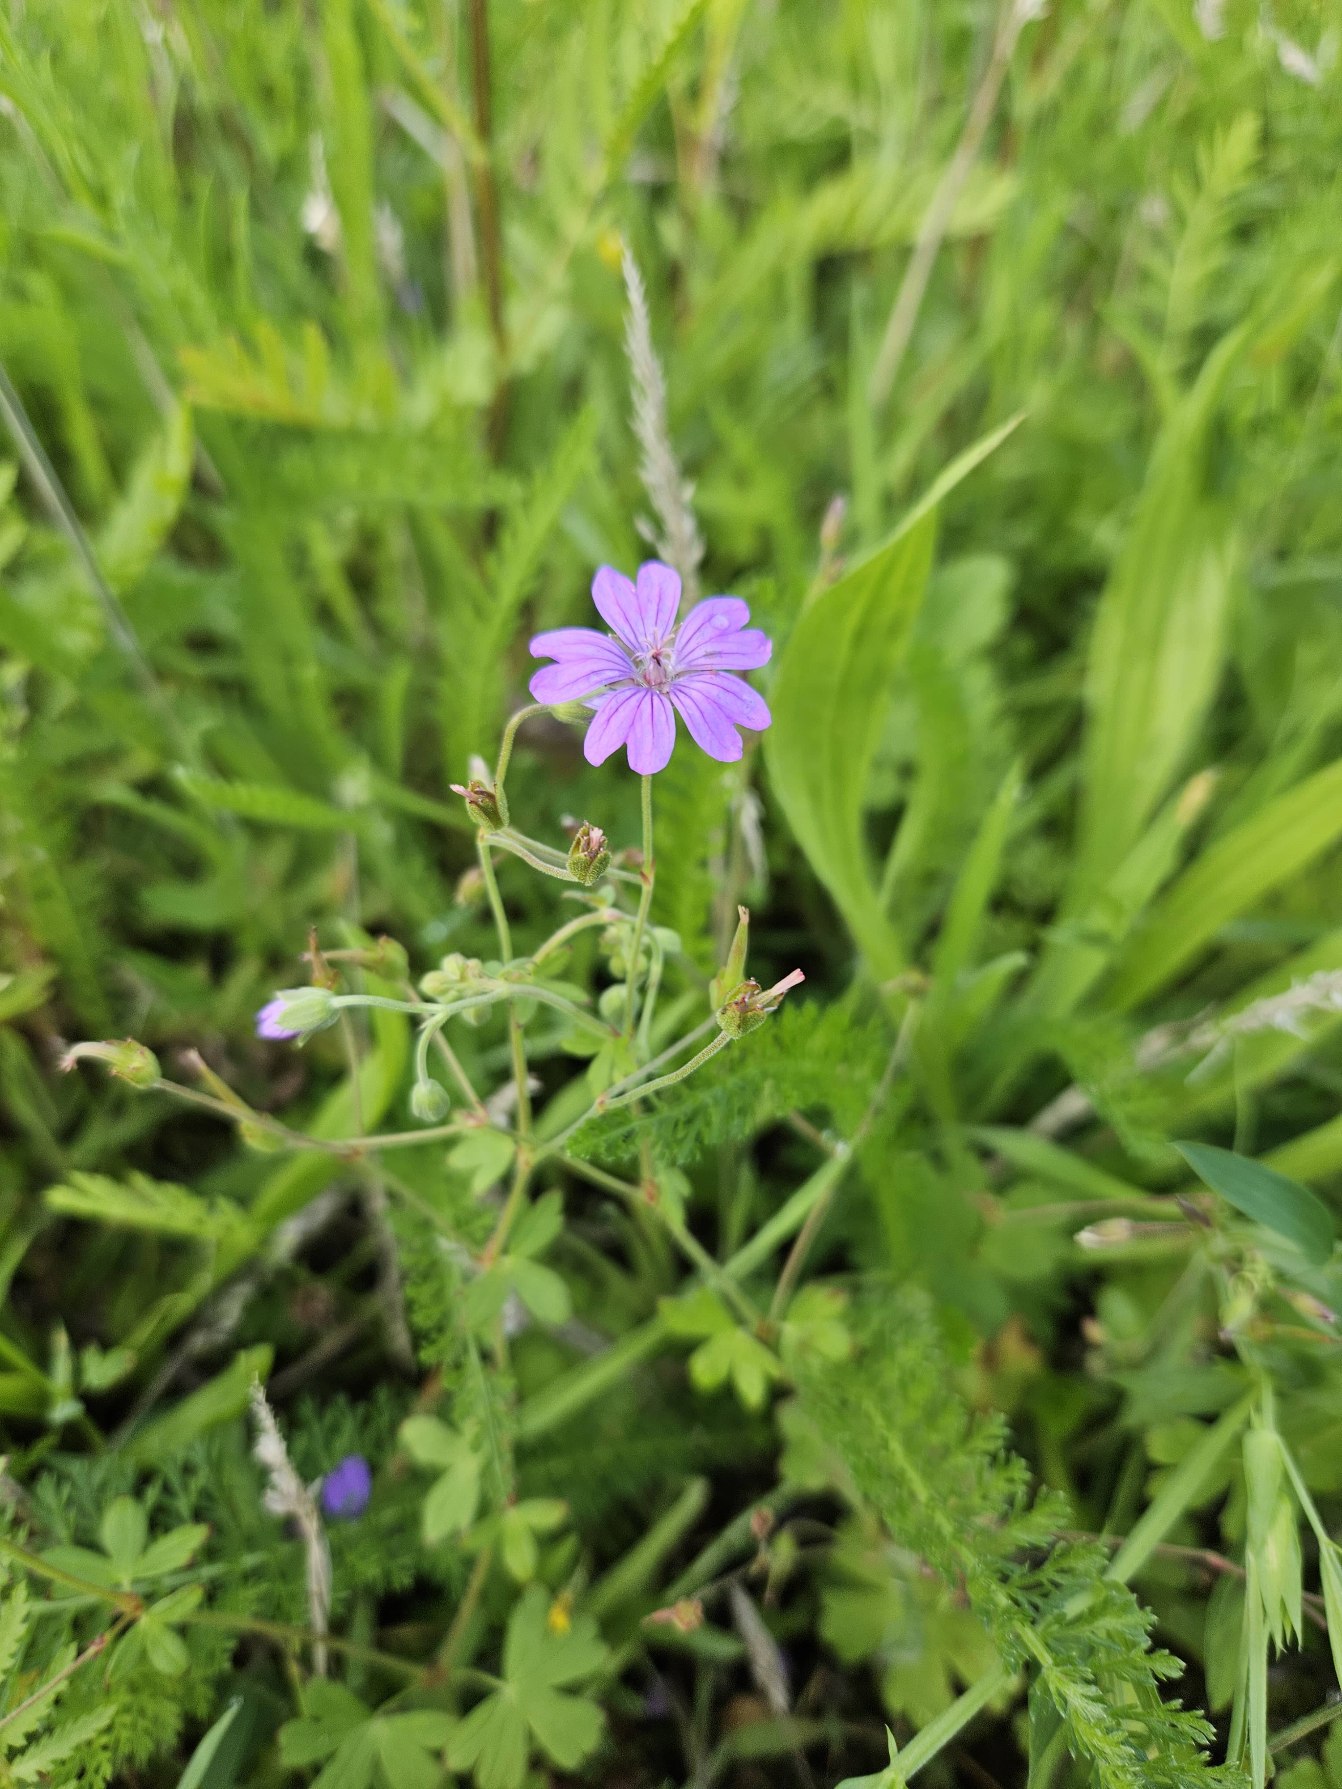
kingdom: Plantae
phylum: Tracheophyta
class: Magnoliopsida
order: Geraniales
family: Geraniaceae
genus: Geranium
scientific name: Geranium pyrenaicum
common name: Pyrenæisk storkenæb
